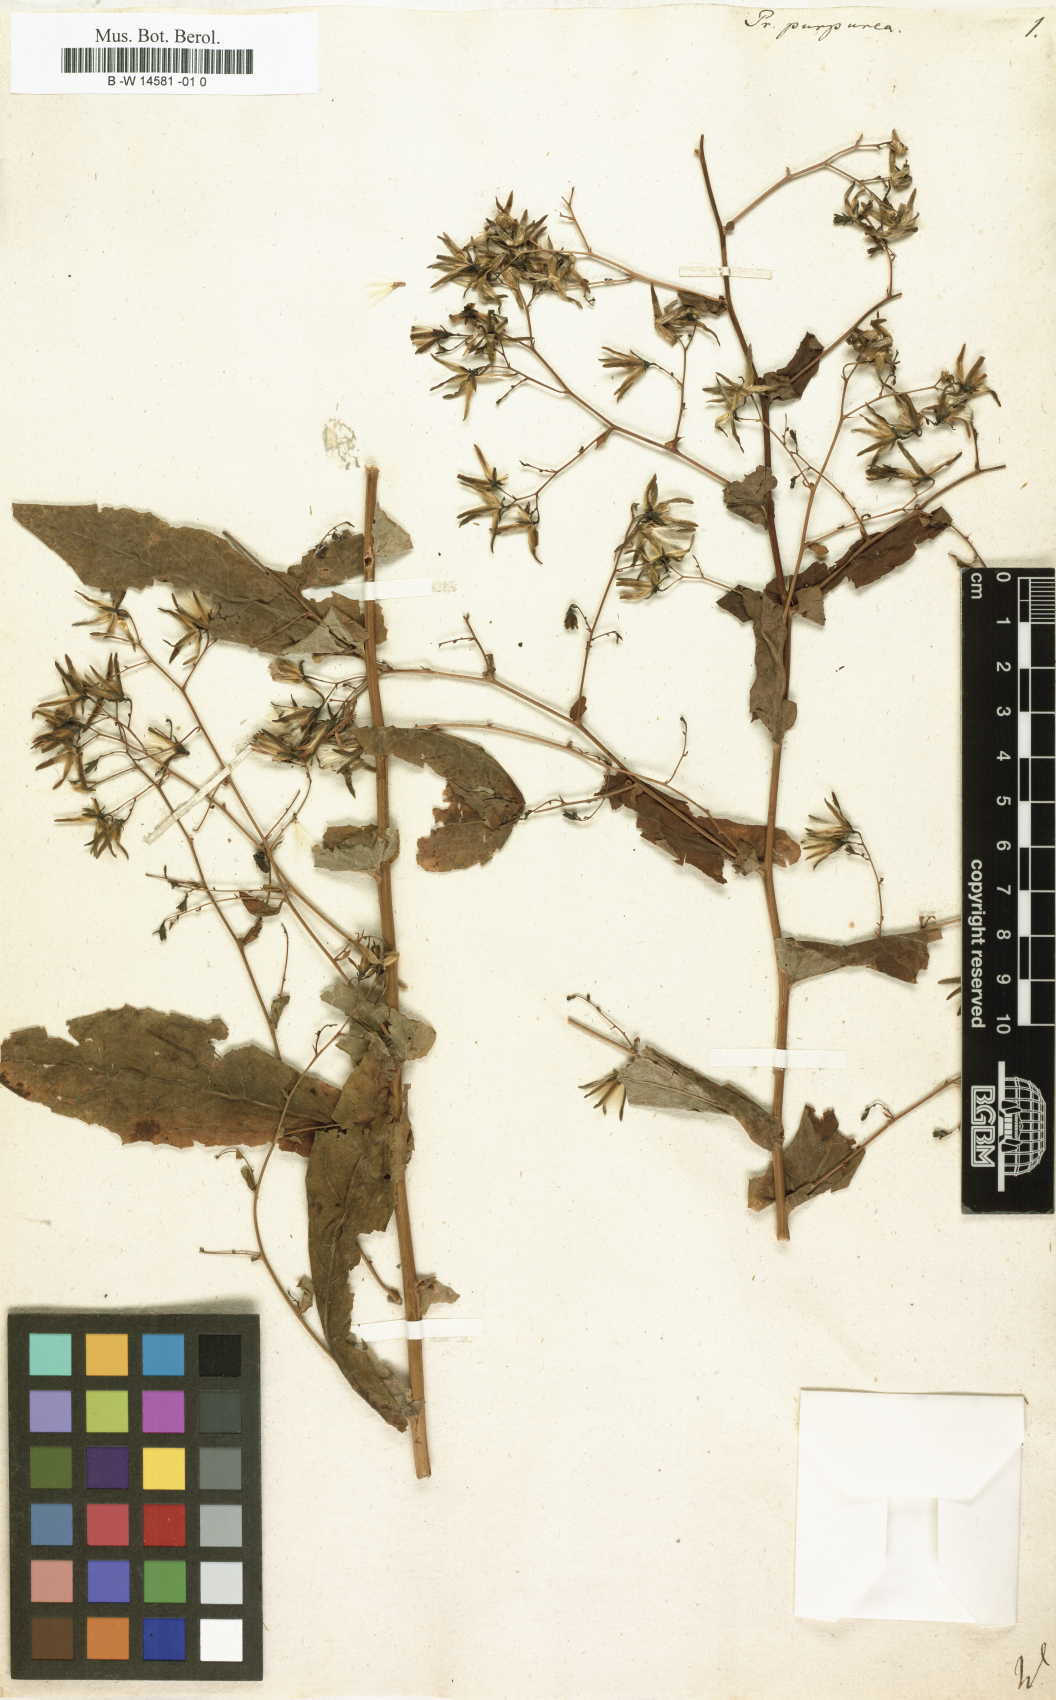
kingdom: Plantae
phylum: Tracheophyta
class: Magnoliopsida
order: Asterales
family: Asteraceae
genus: Prenanthes
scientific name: Prenanthes purpurea
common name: Purple lettuce
